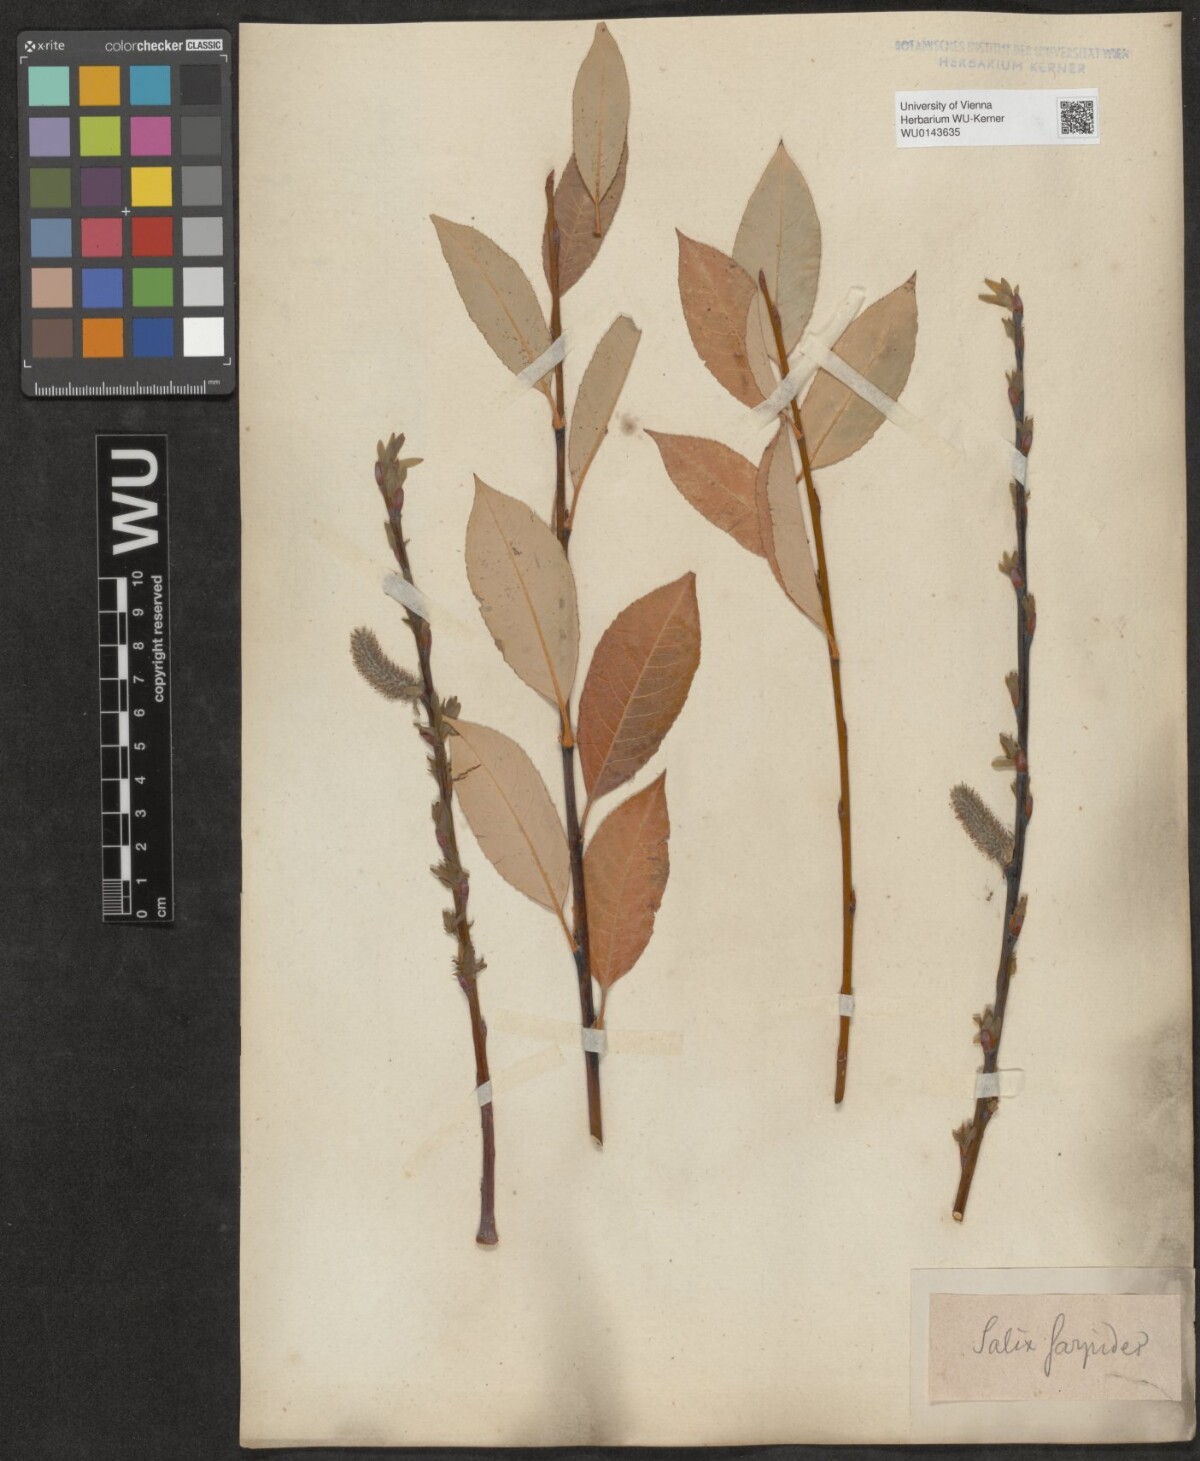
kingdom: Plantae
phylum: Tracheophyta
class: Magnoliopsida
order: Malpighiales
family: Salicaceae
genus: Salix
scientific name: Salix
